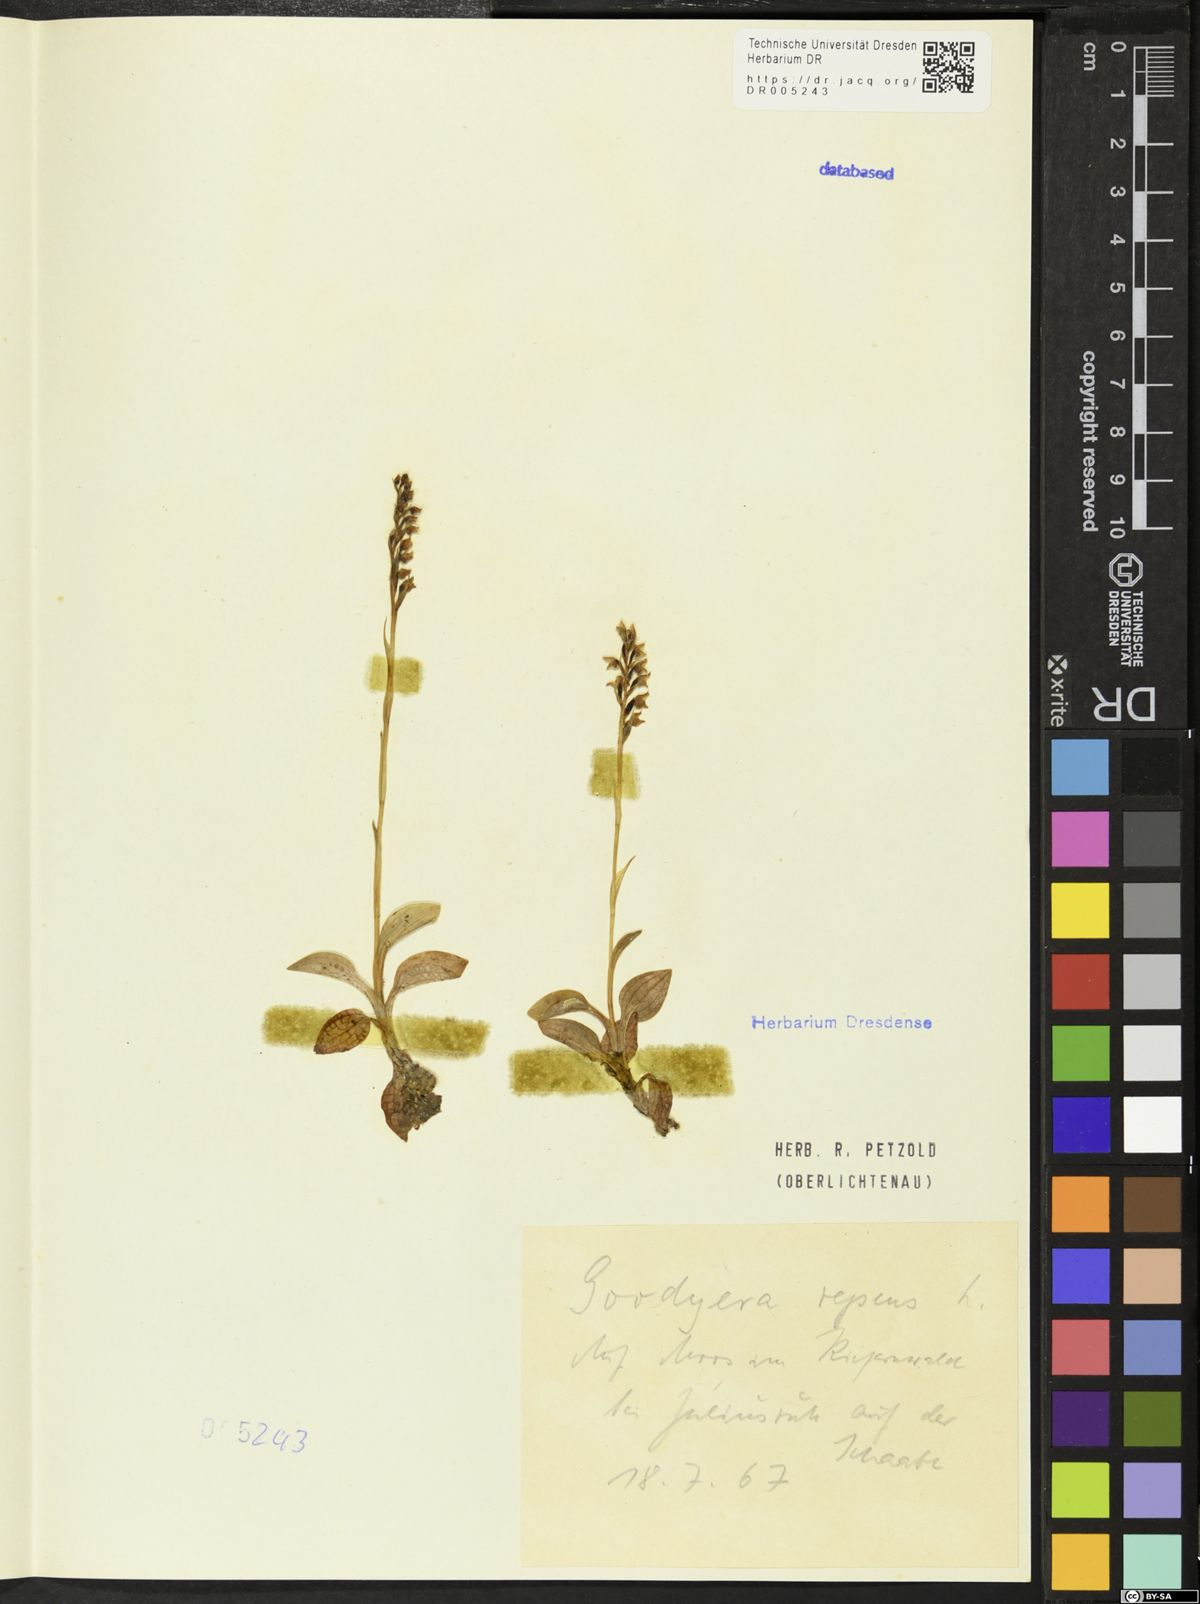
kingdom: Plantae
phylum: Tracheophyta
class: Liliopsida
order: Asparagales
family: Orchidaceae
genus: Goodyera
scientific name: Goodyera repens
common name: Creeping lady's-tresses
